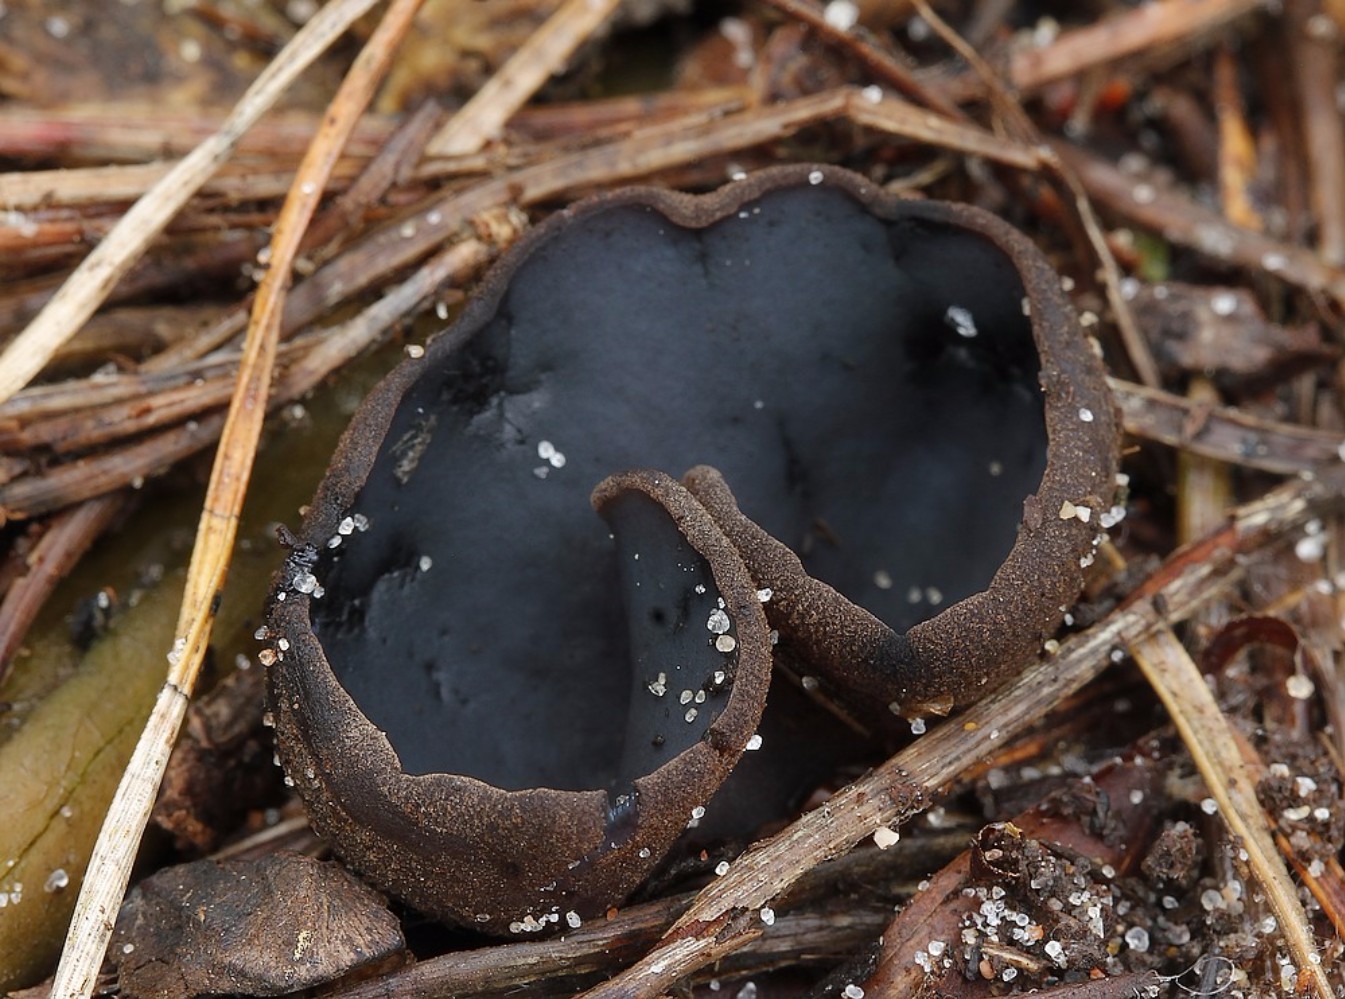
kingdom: Fungi
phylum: Ascomycota
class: Pezizomycetes
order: Pezizales
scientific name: Pezizales
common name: bægersvampordenen
